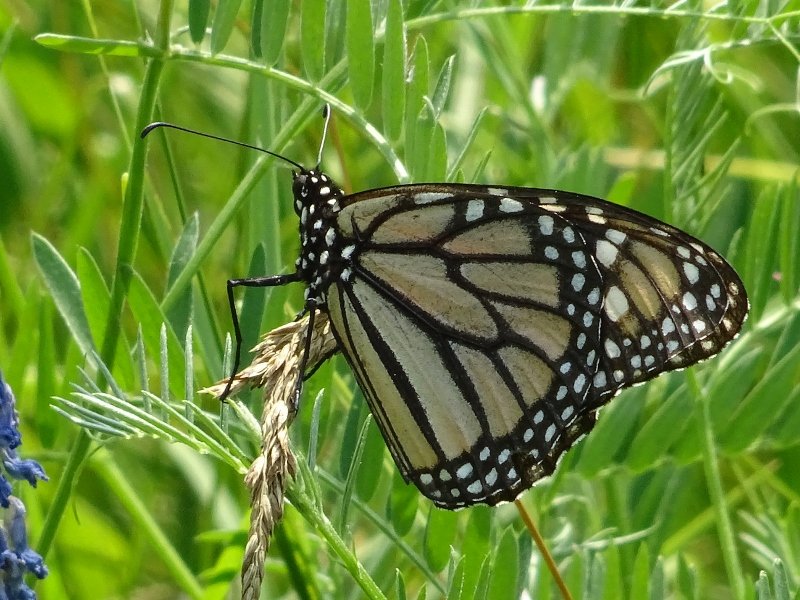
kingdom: Animalia
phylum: Arthropoda
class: Insecta
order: Lepidoptera
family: Nymphalidae
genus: Danaus
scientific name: Danaus plexippus
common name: Monarch
